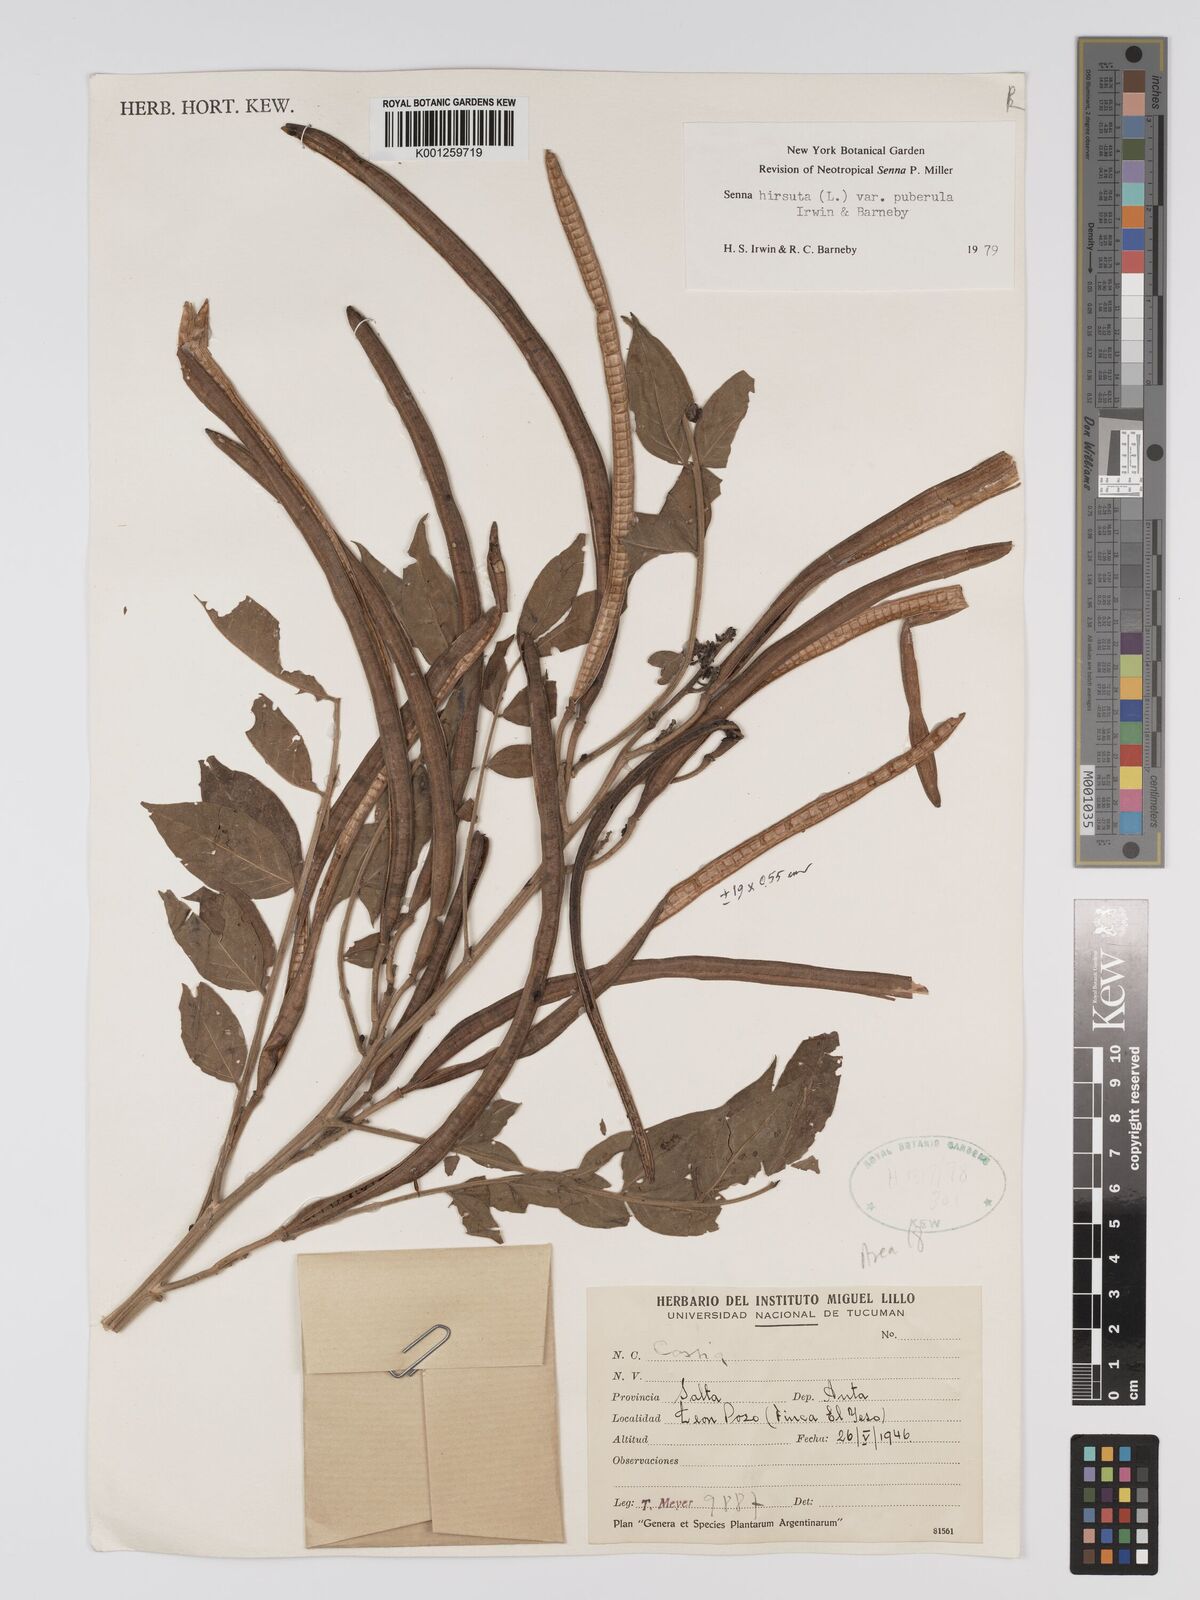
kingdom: Plantae
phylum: Tracheophyta
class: Magnoliopsida
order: Fabales
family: Fabaceae
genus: Senna
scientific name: Senna hirsuta
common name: Woolly senna
